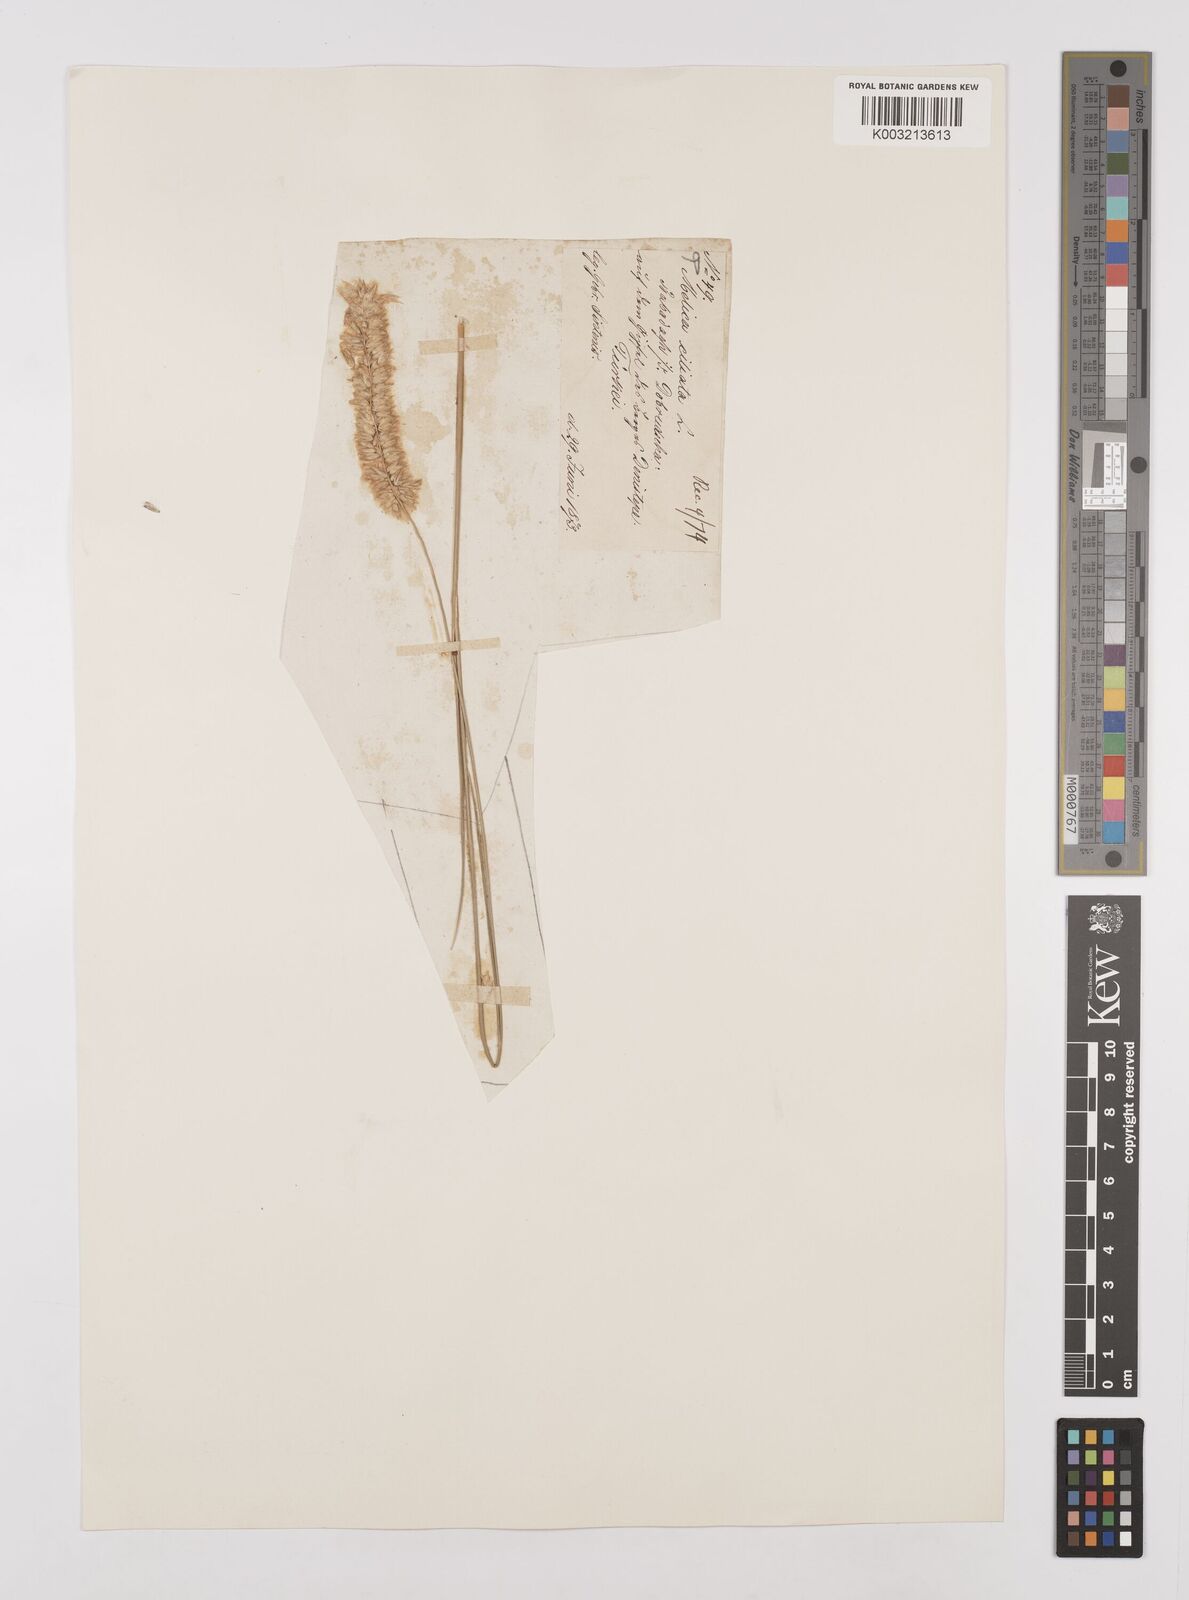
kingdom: Plantae
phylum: Tracheophyta
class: Liliopsida
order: Poales
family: Poaceae
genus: Melica
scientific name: Melica ciliata
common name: Hairy melicgrass
